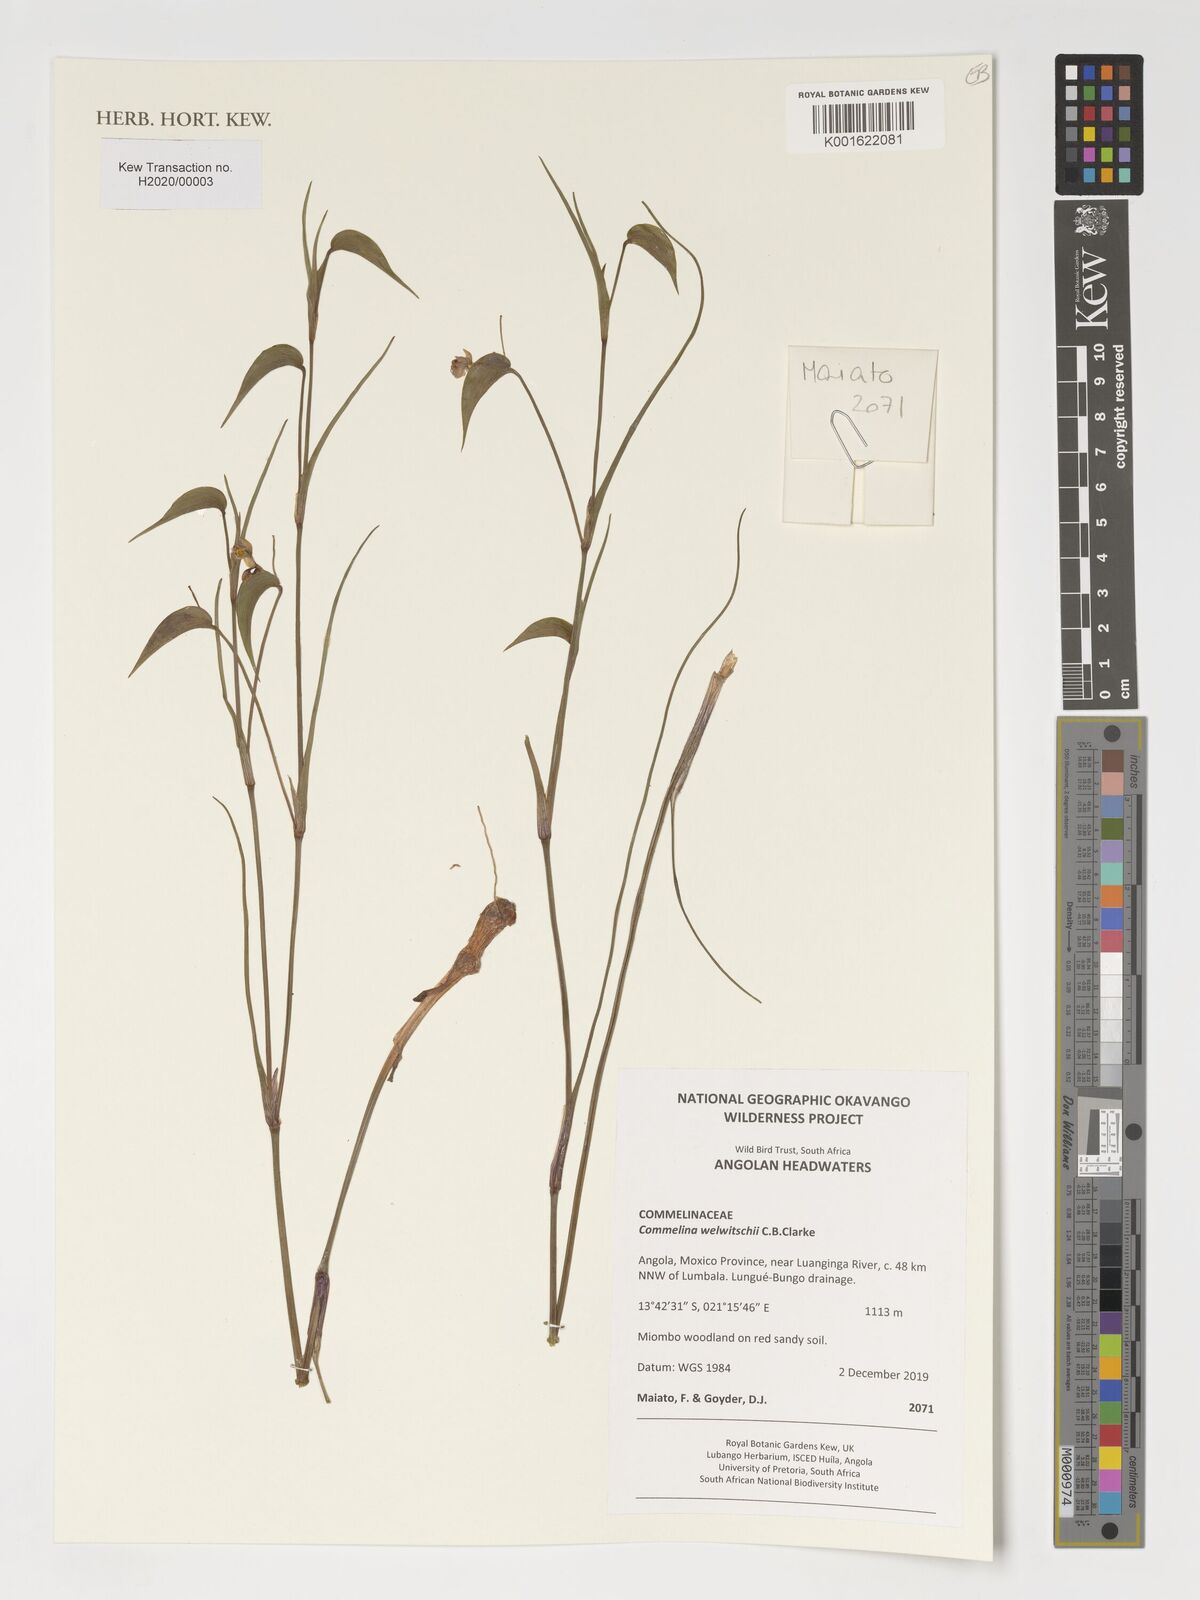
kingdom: Plantae
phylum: Tracheophyta
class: Liliopsida
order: Commelinales
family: Commelinaceae
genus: Commelina
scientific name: Commelina welwitschii
